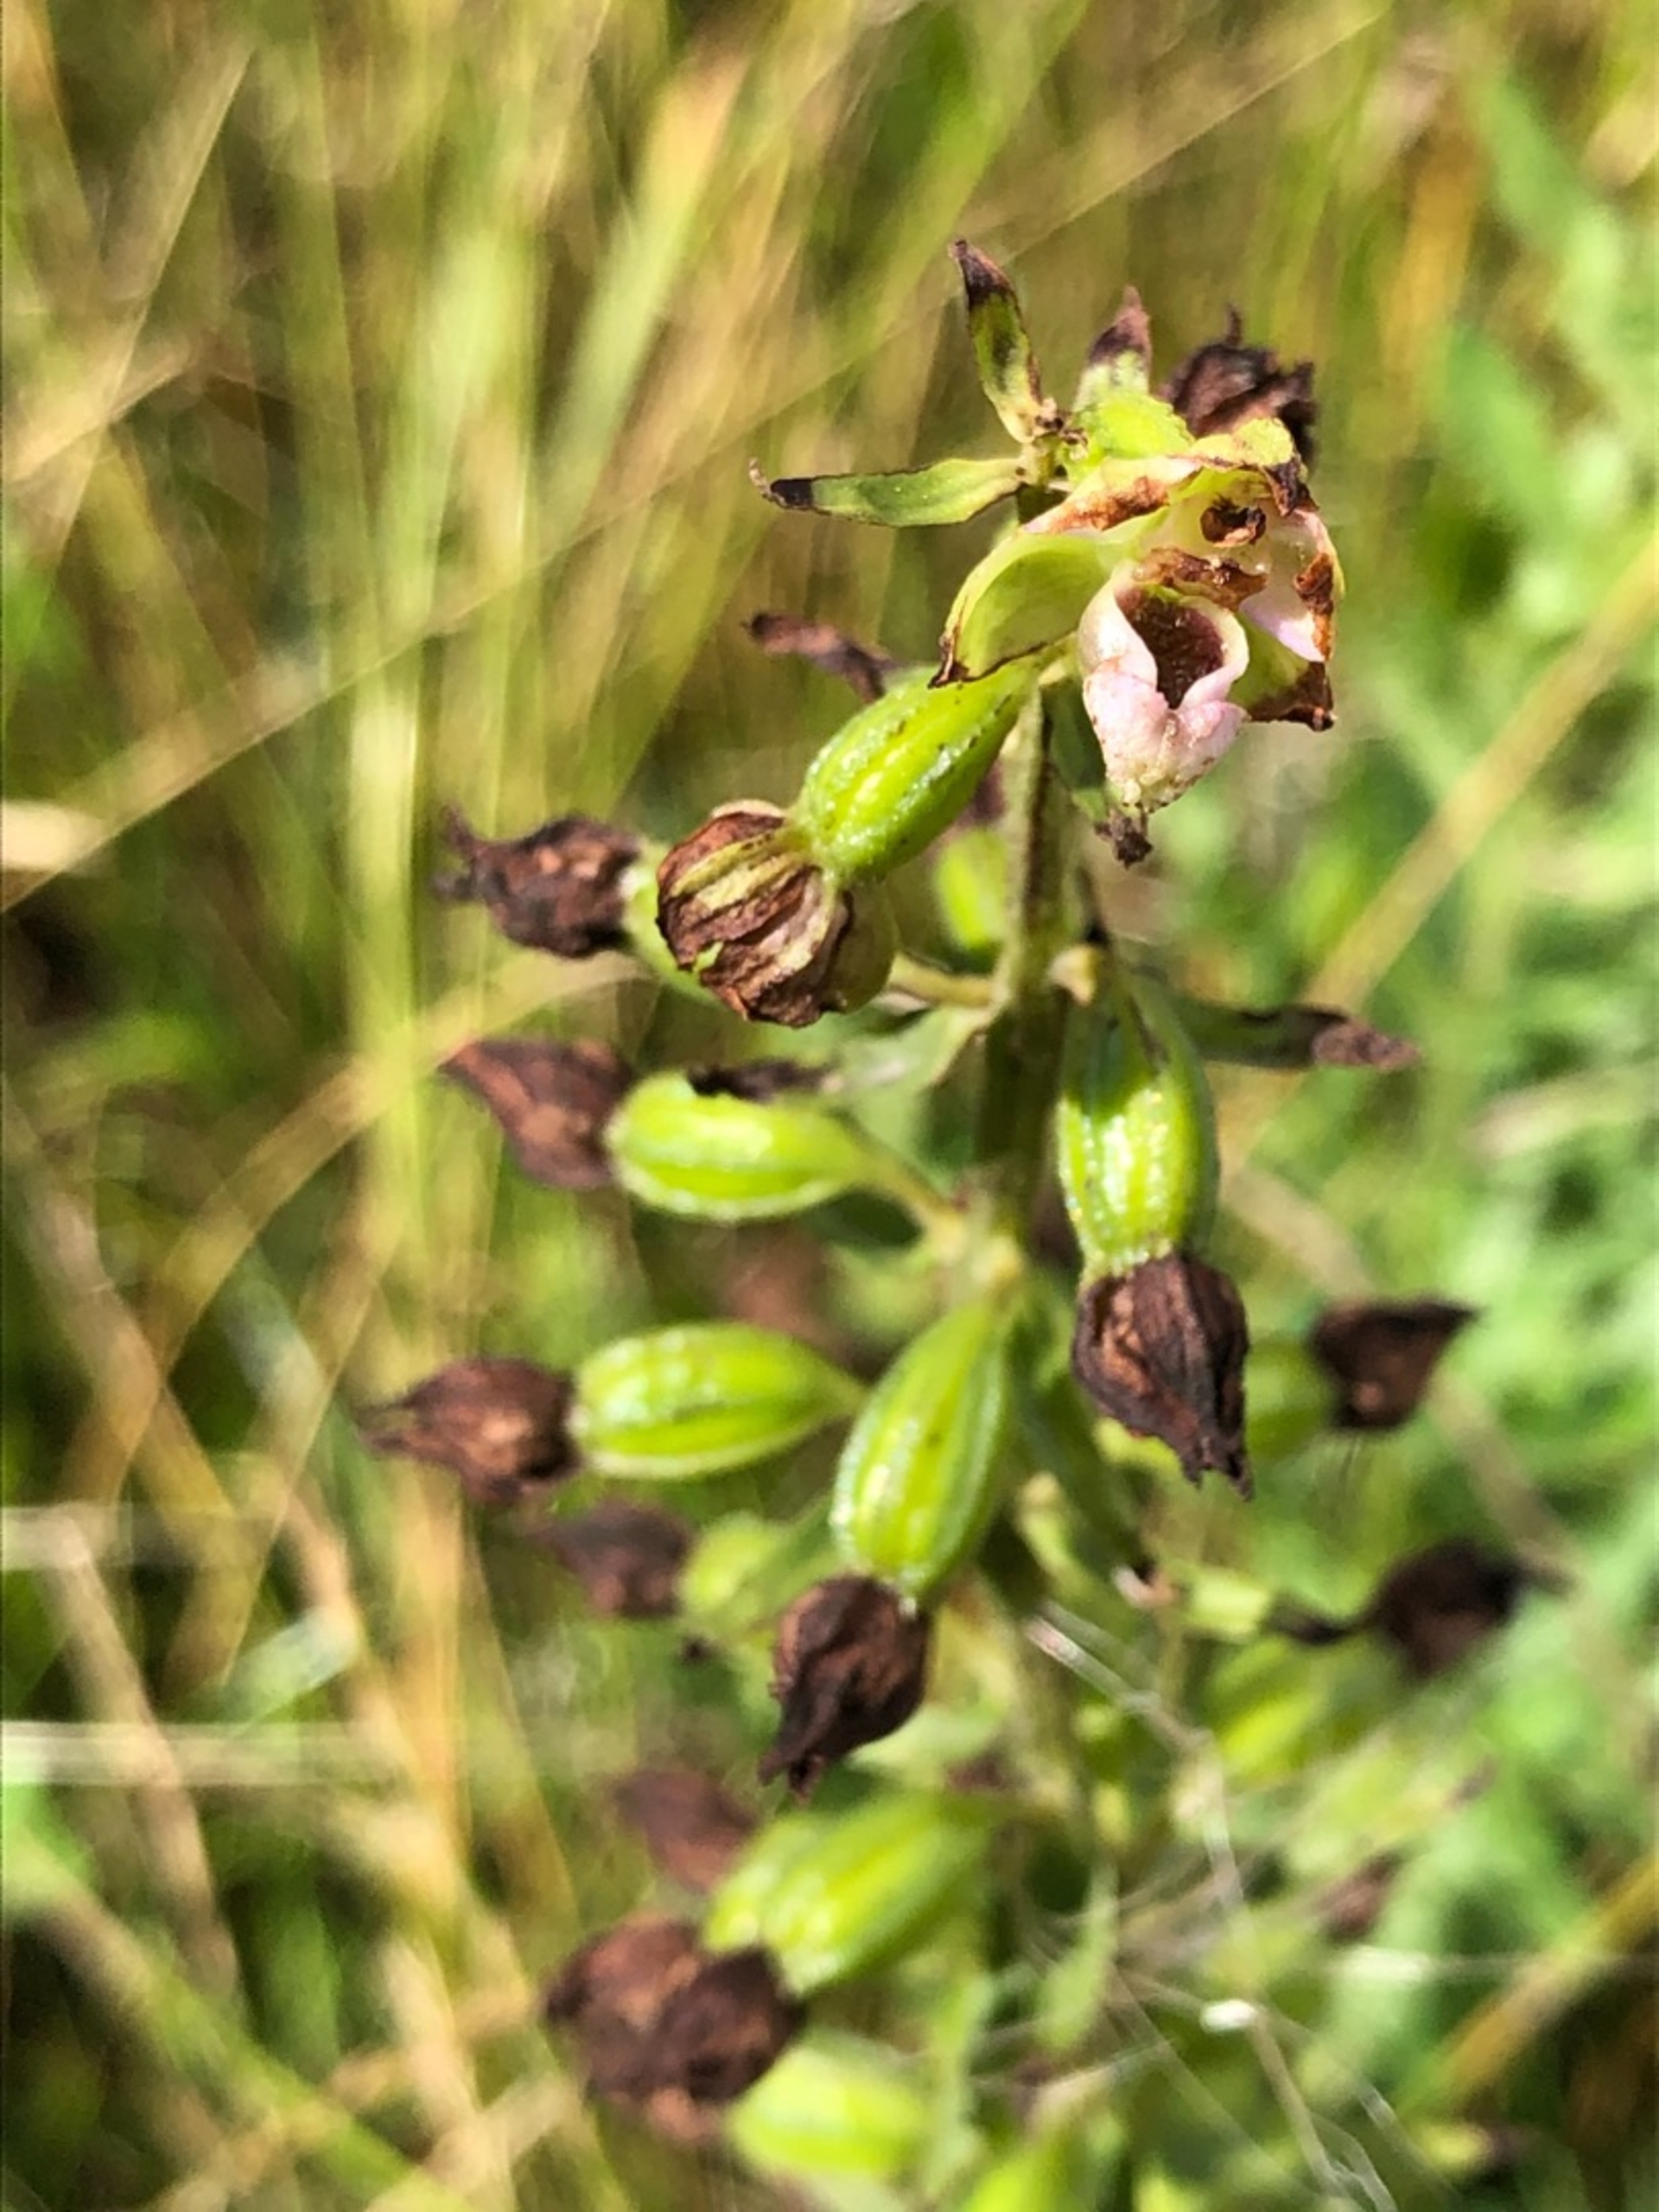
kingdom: Plantae
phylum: Tracheophyta
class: Liliopsida
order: Asparagales
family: Orchidaceae
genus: Epipactis
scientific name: Epipactis helleborine
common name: Skov-hullæbe
